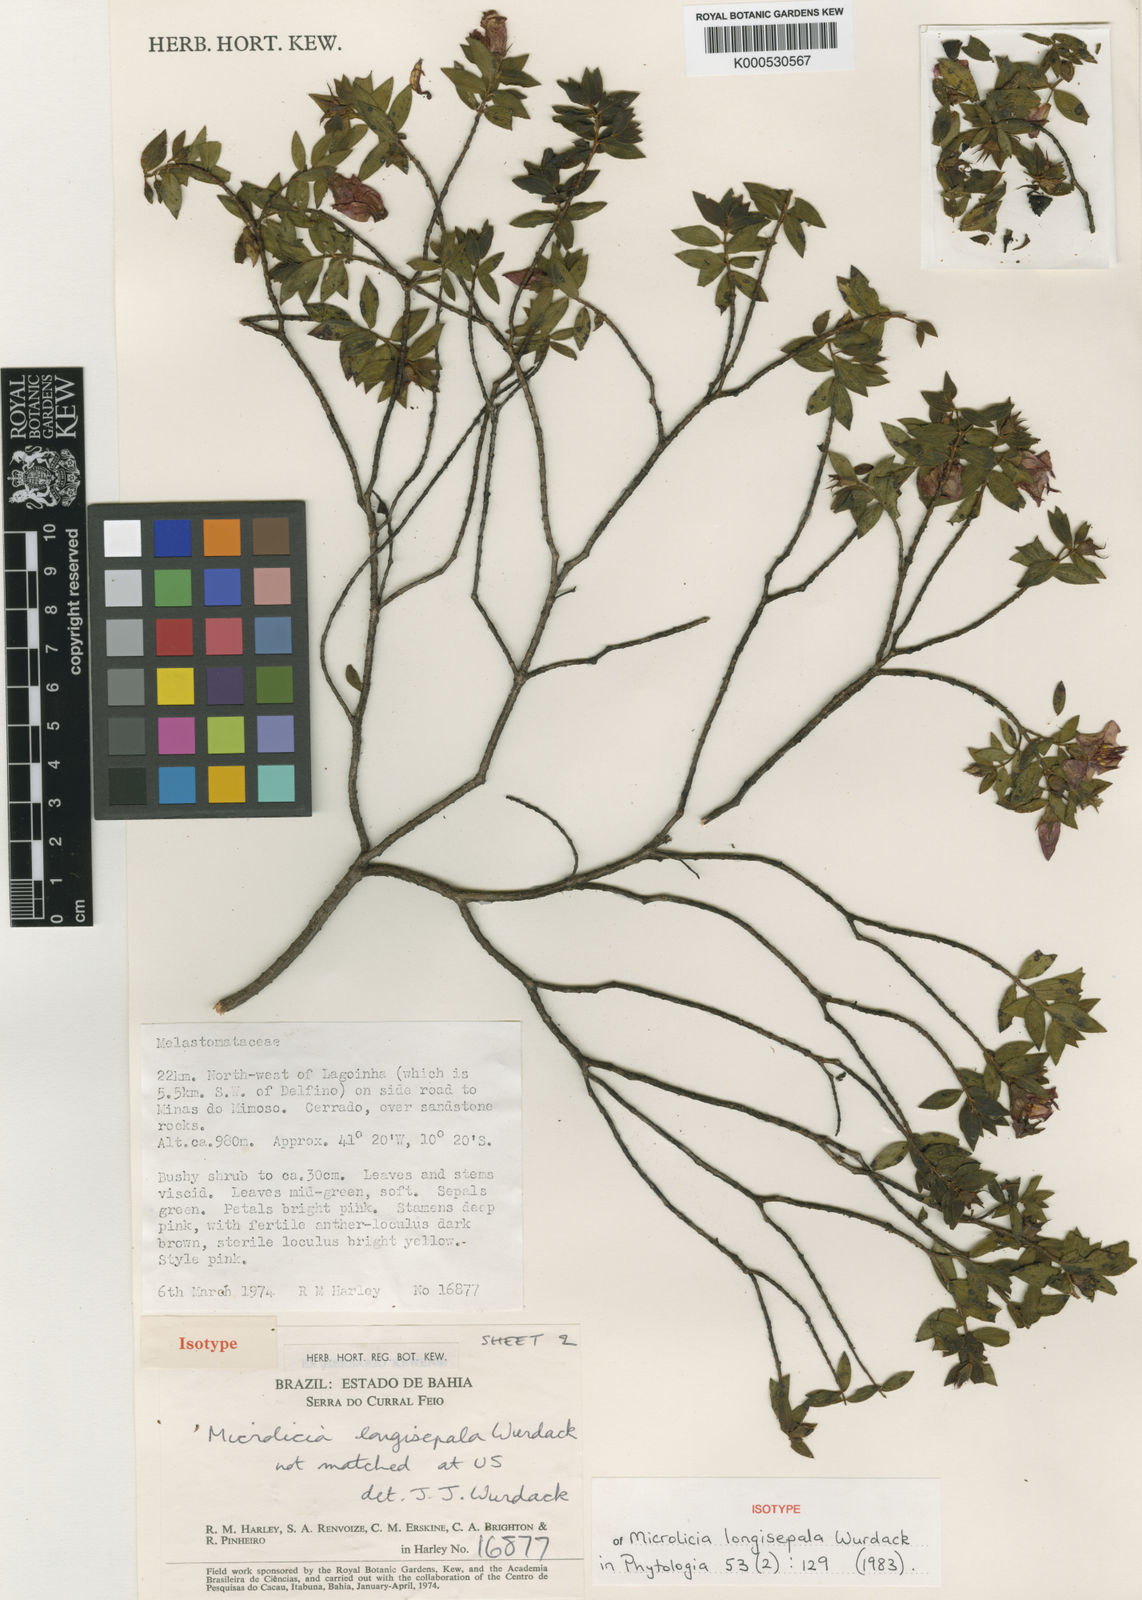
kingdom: Plantae
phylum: Tracheophyta
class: Magnoliopsida
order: Myrtales
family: Melastomataceae
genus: Microlicia
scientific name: Microlicia longisepala
